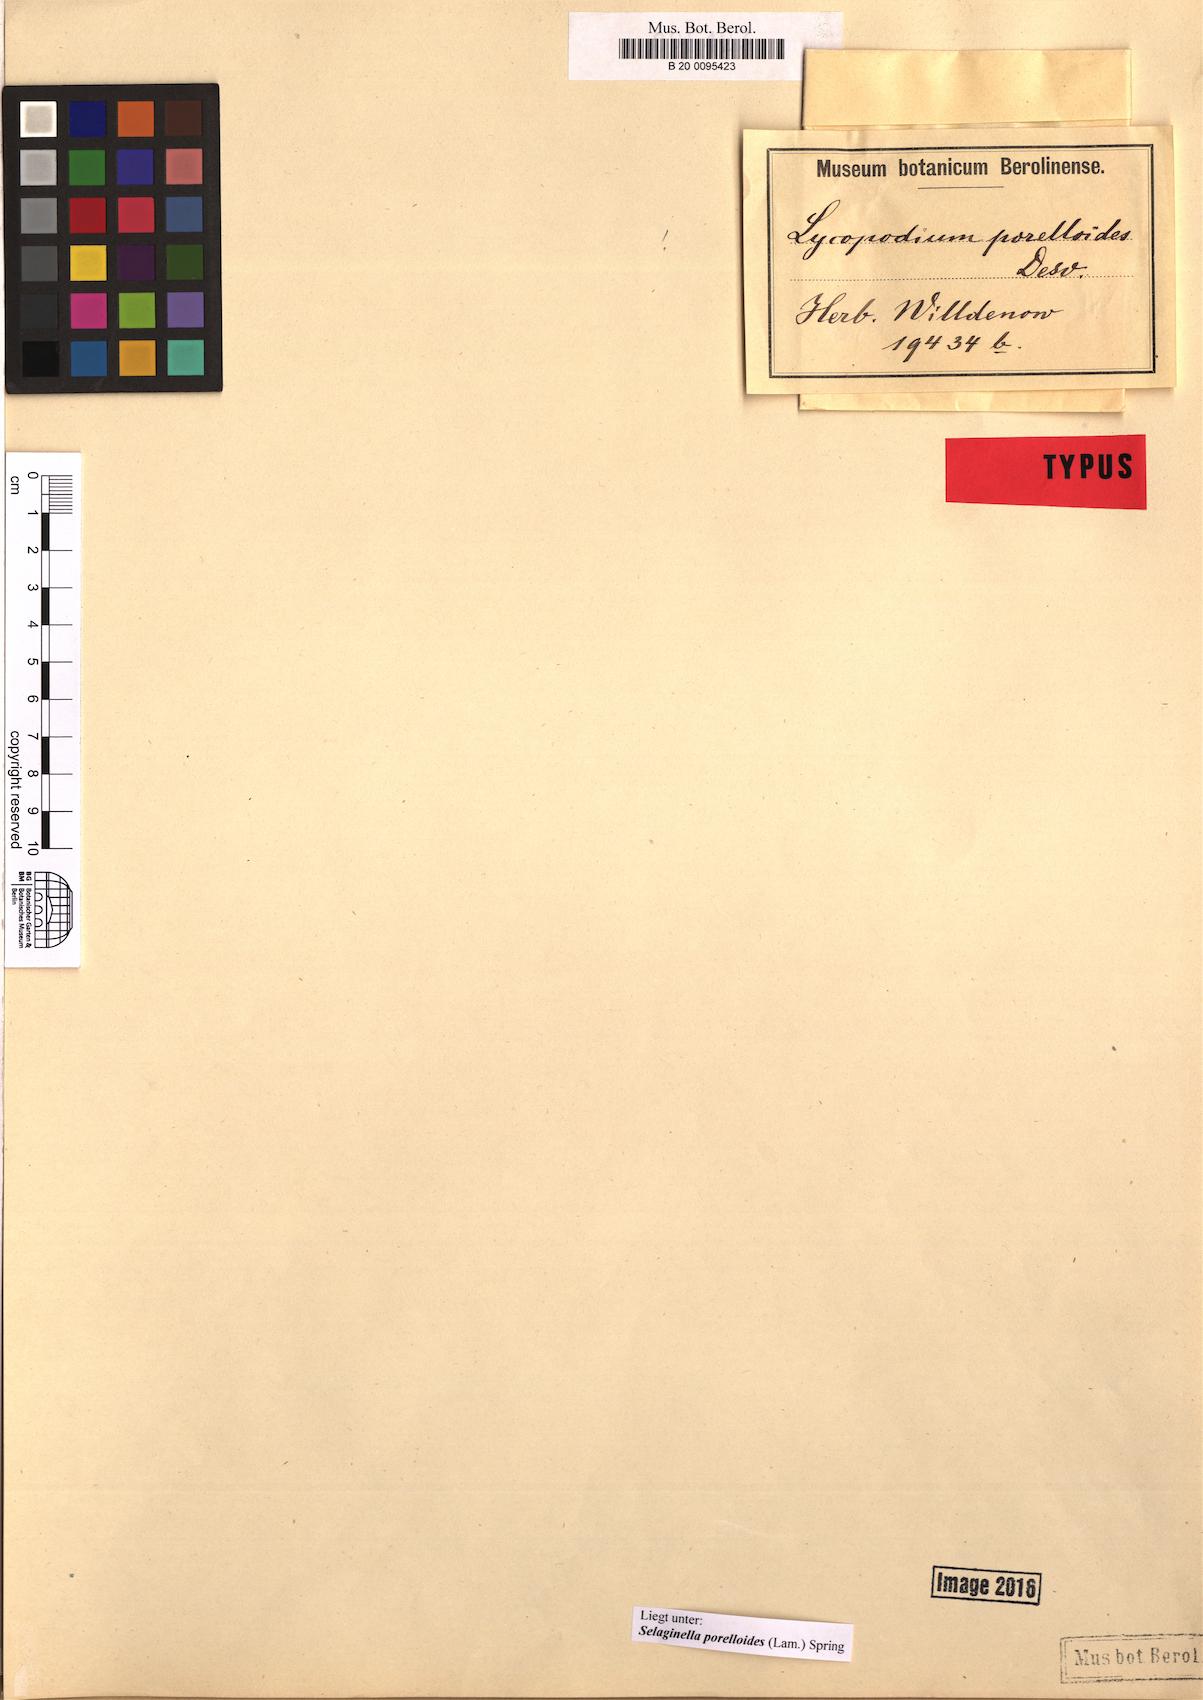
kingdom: Plantae
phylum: Tracheophyta
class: Lycopodiopsida
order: Selaginellales
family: Selaginellaceae
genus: Selaginella
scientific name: Selaginella porelloides
